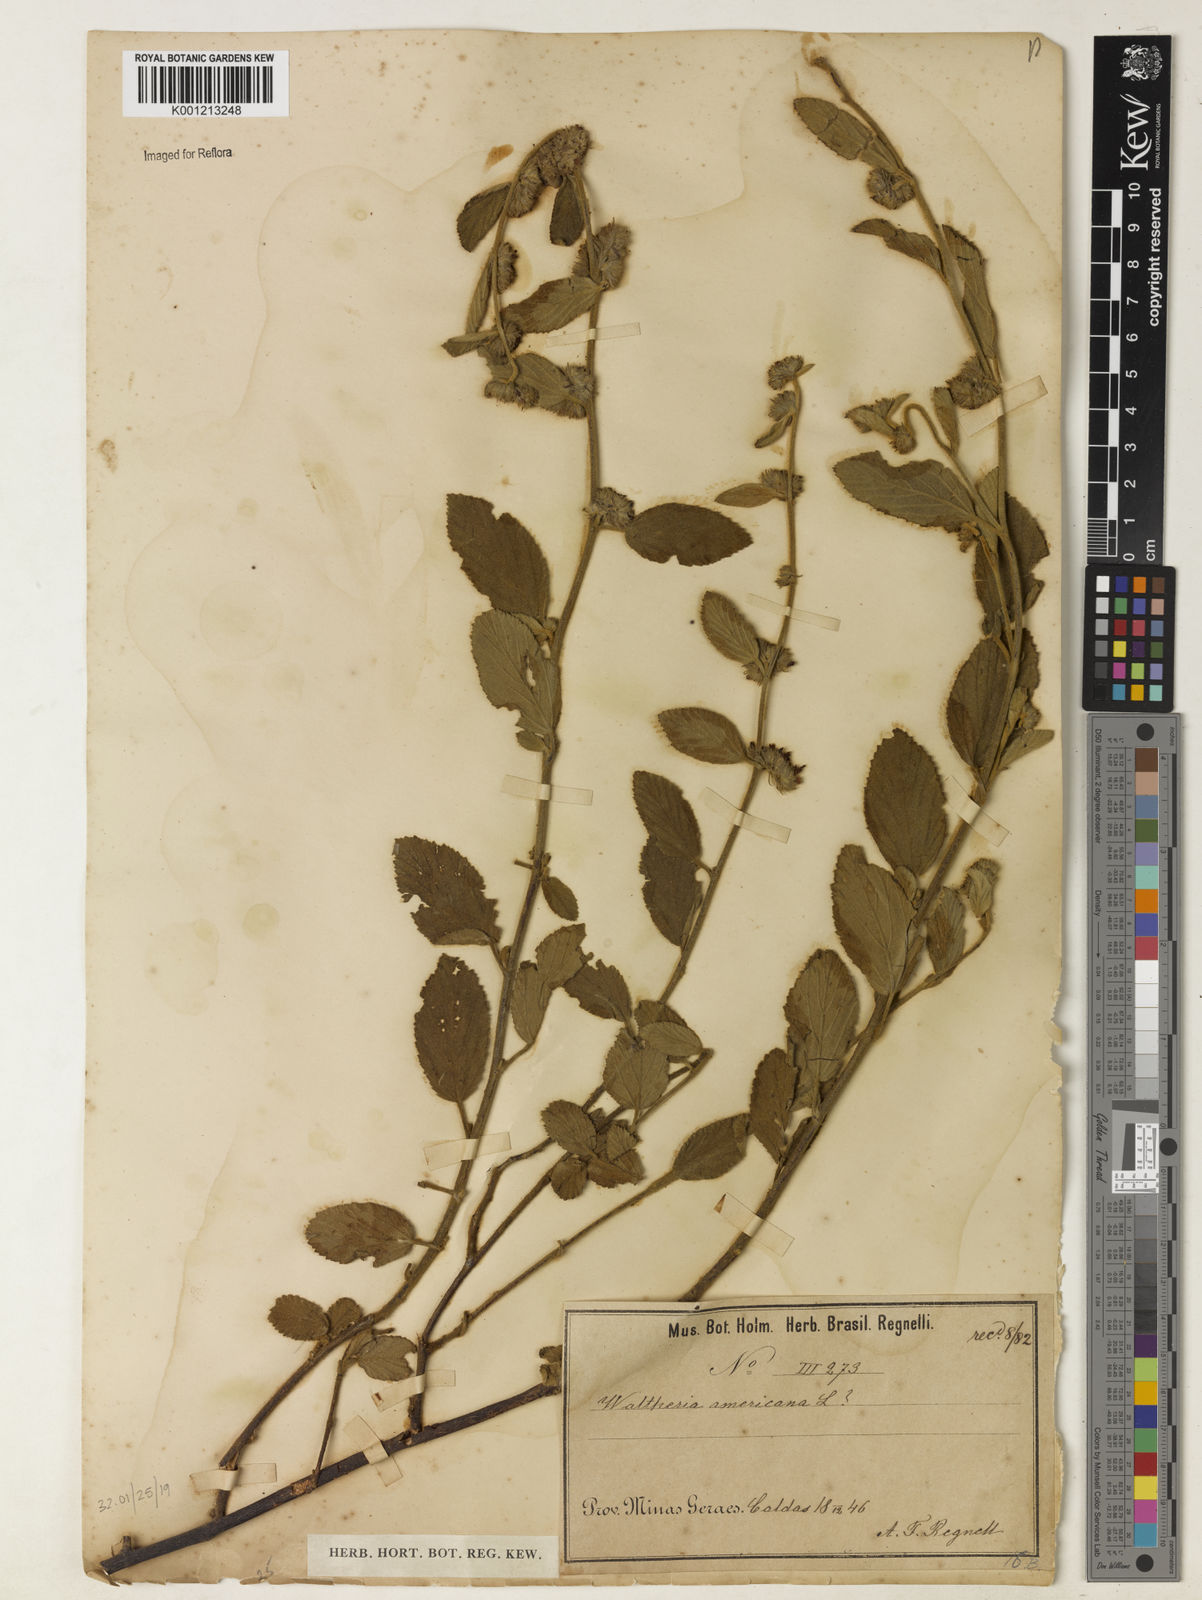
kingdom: Plantae
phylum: Tracheophyta
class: Magnoliopsida
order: Malvales
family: Malvaceae
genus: Waltheria
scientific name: Waltheria indica
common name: Leather-coat
